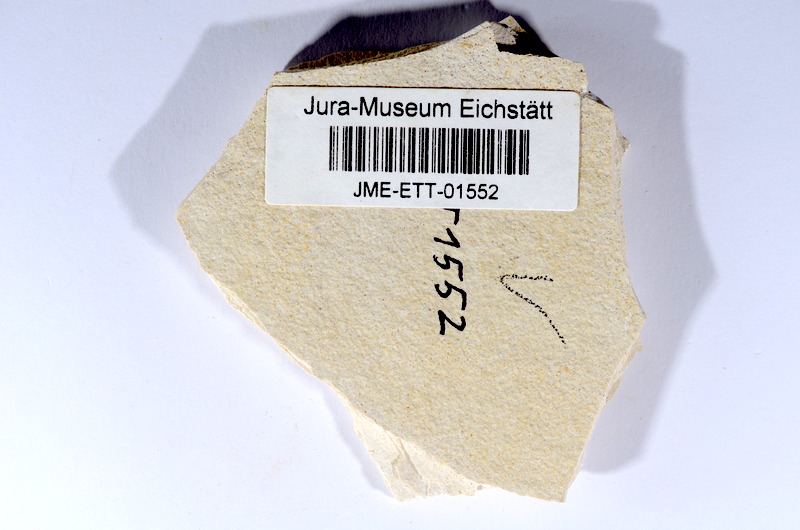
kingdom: Animalia
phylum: Chordata
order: Salmoniformes
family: Orthogonikleithridae
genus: Orthogonikleithrus
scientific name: Orthogonikleithrus hoelli
